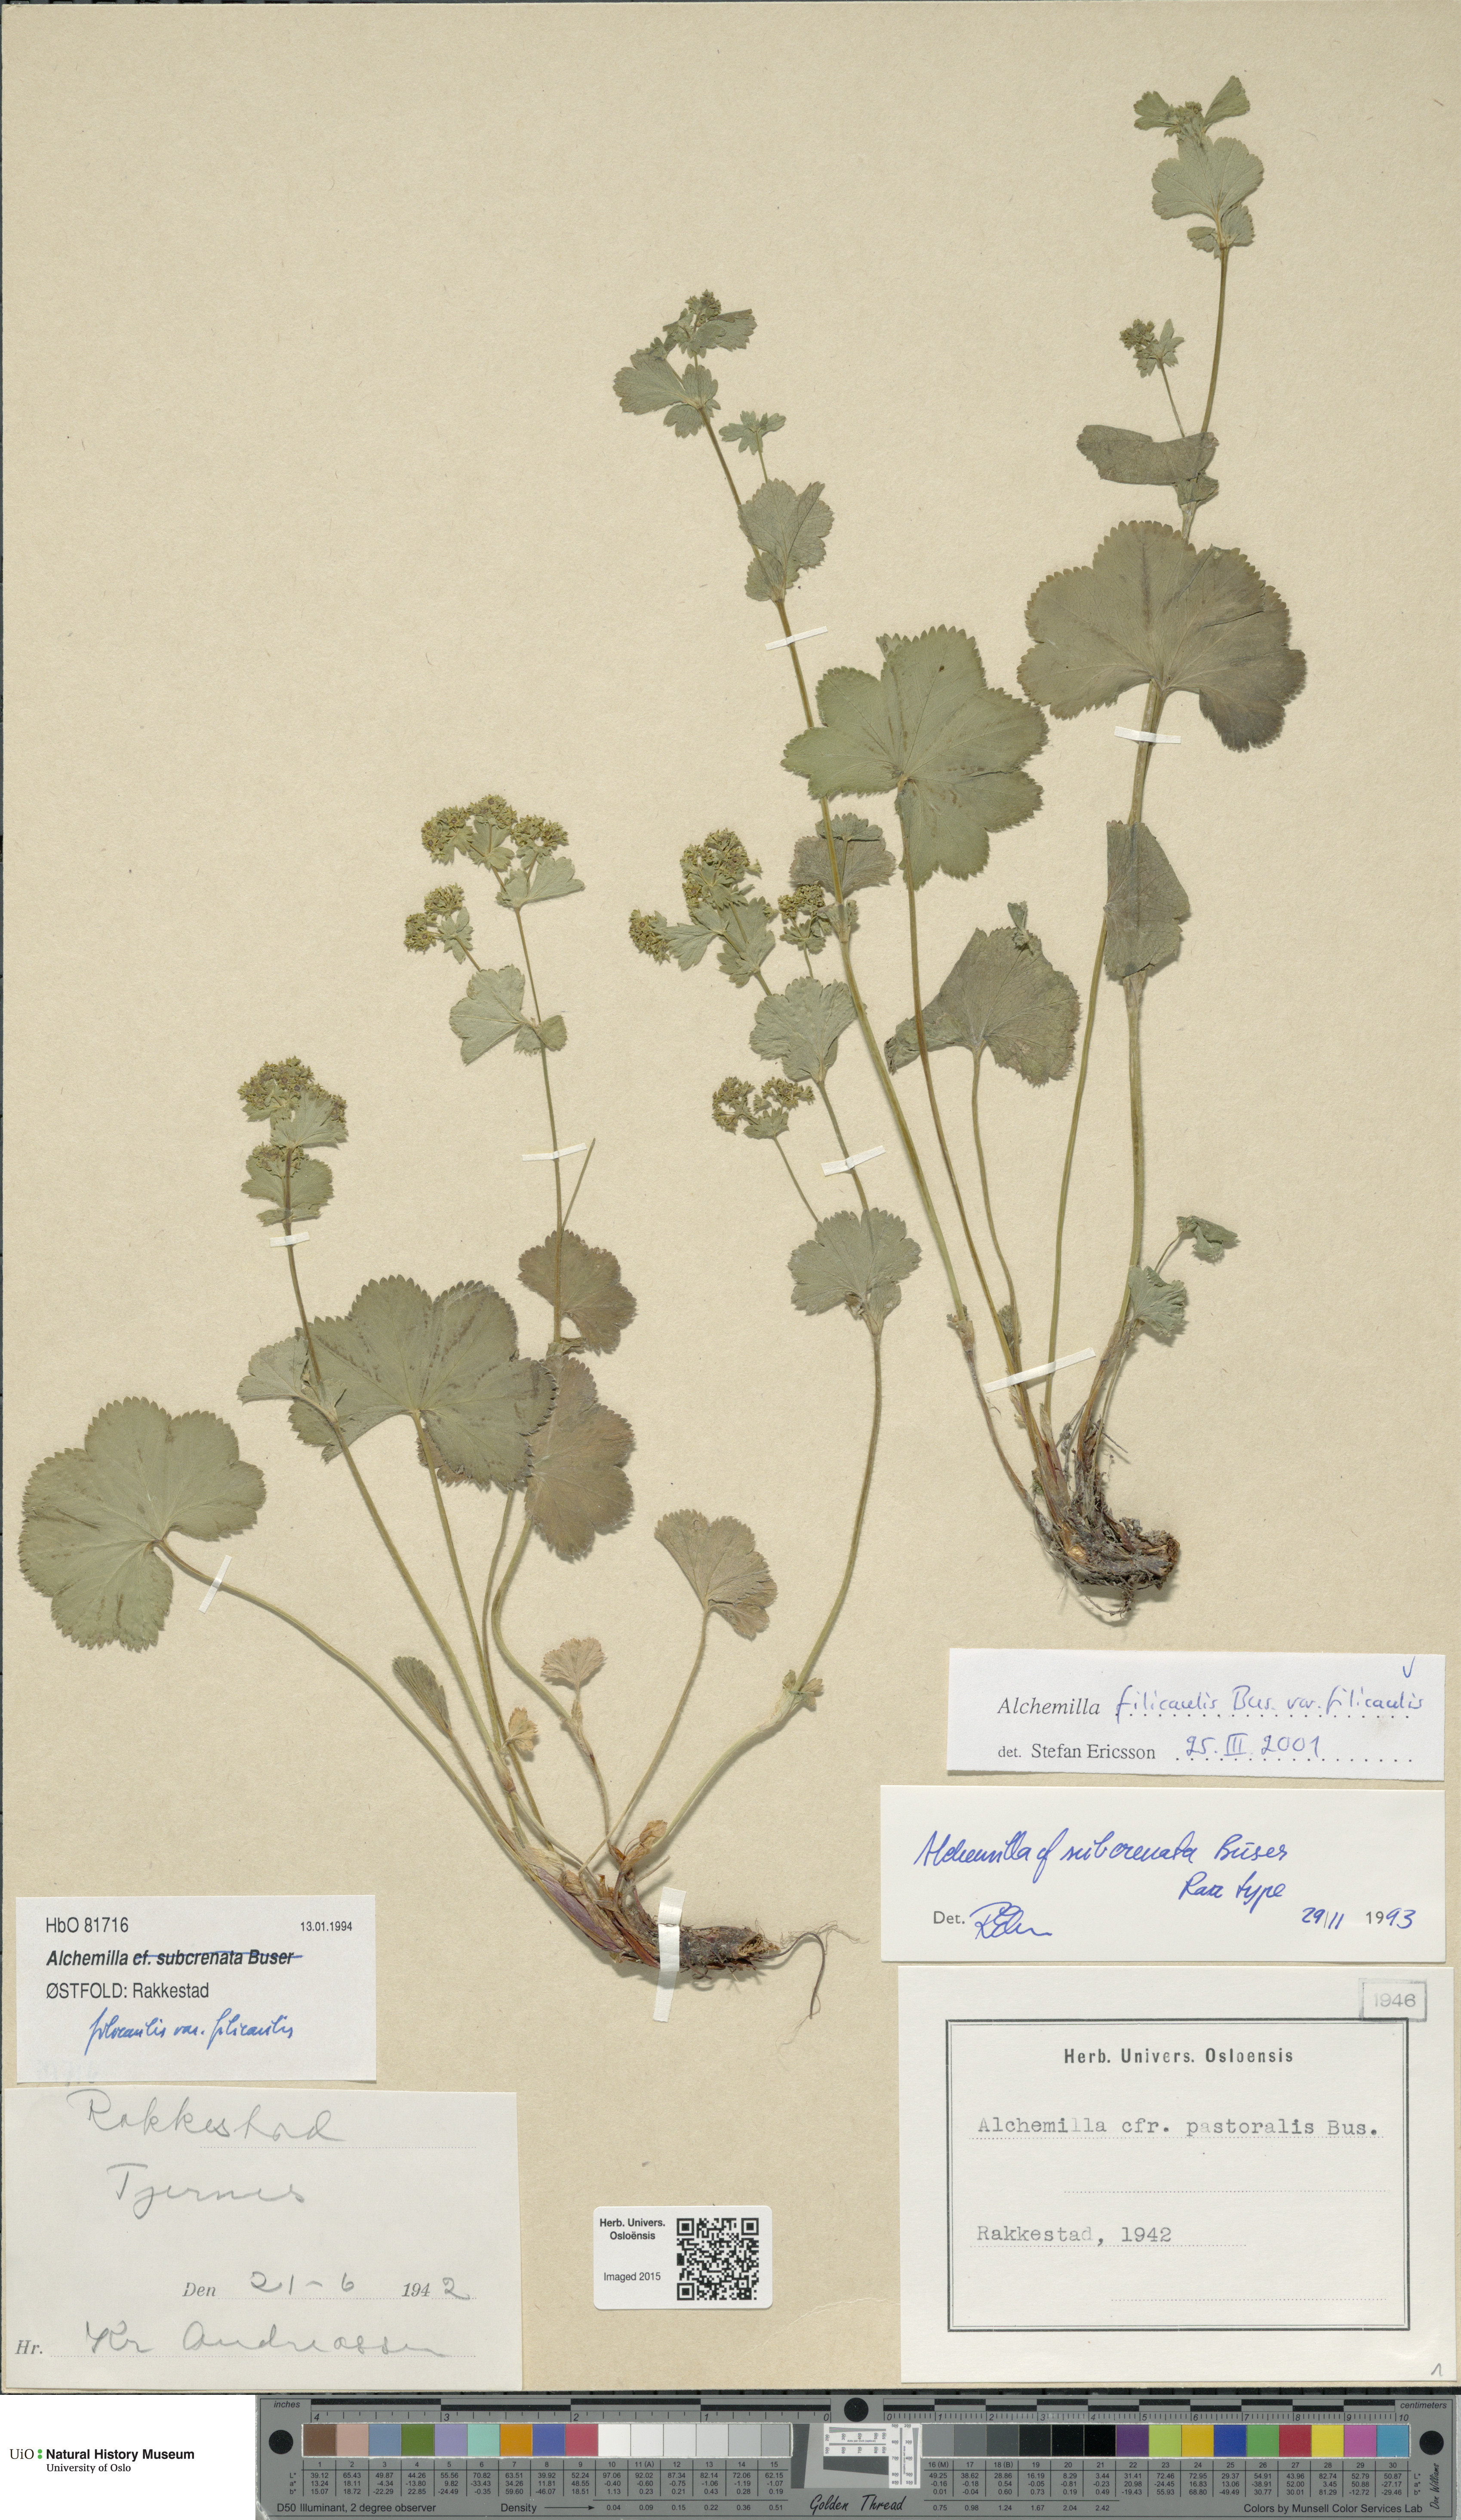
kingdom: Plantae
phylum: Tracheophyta
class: Magnoliopsida
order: Rosales
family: Rosaceae
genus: Alchemilla
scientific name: Alchemilla filicaulis
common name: Hairy lady's-mantle
